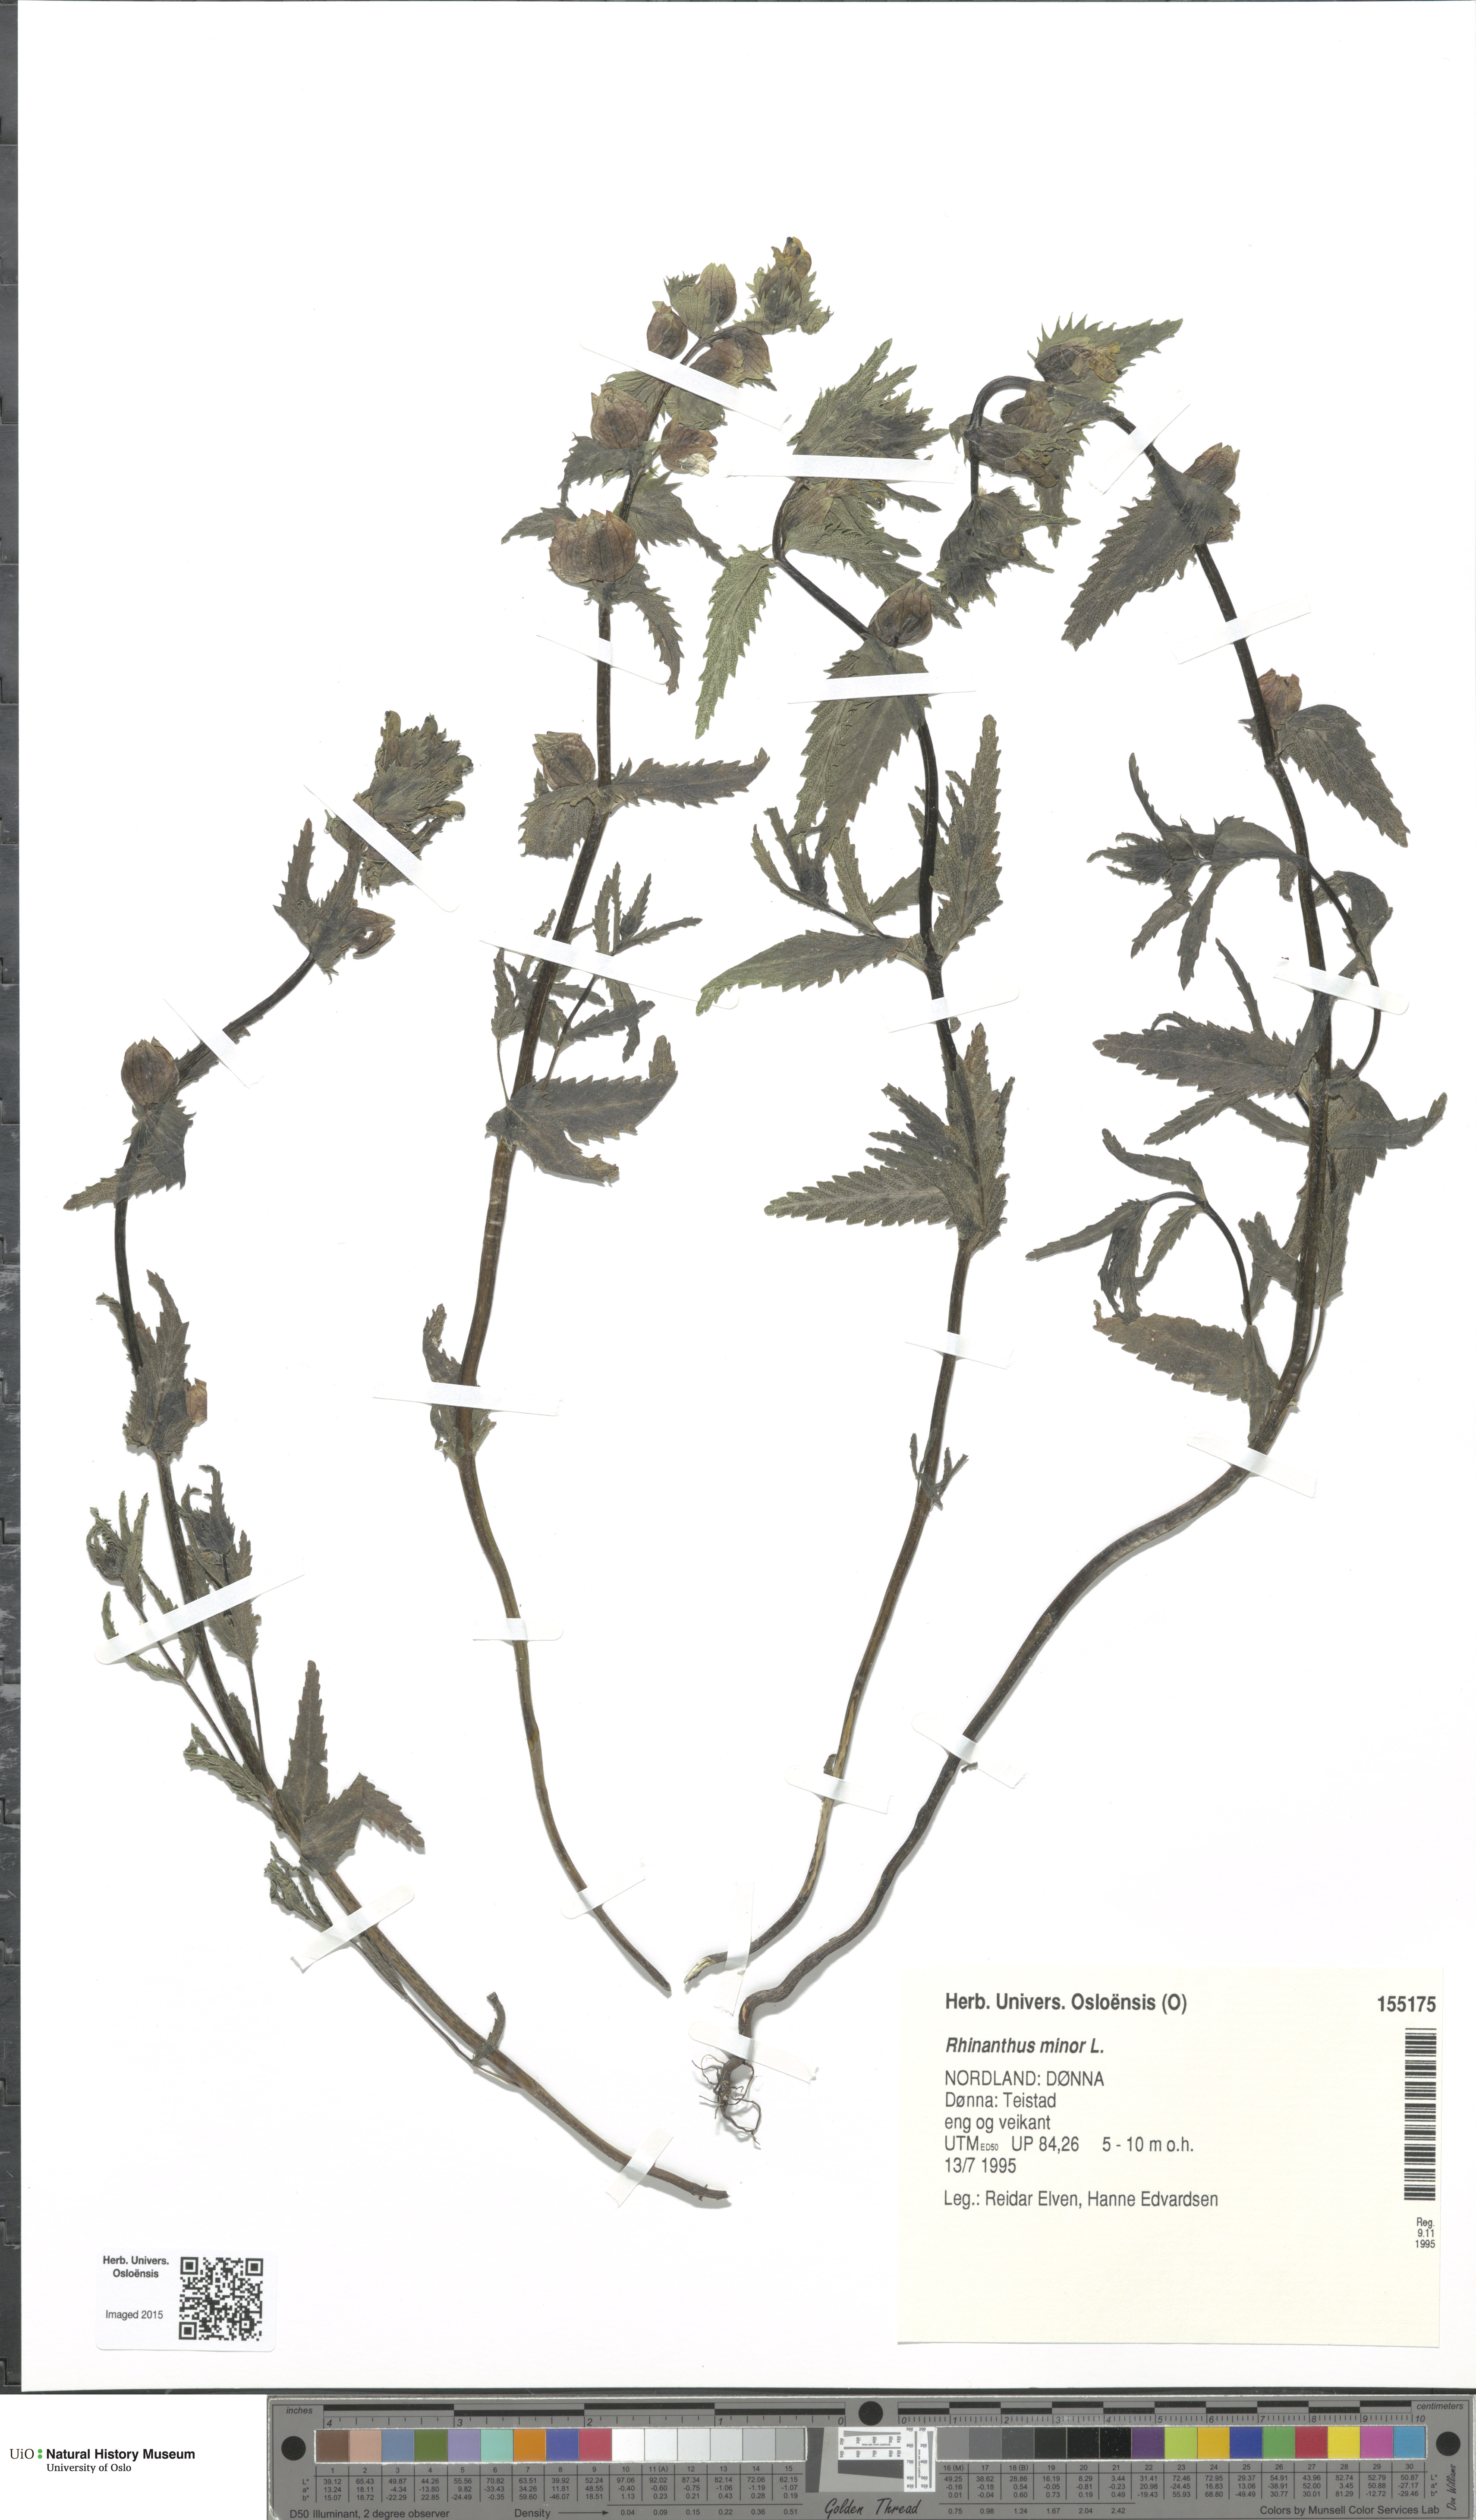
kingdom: Plantae
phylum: Tracheophyta
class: Magnoliopsida
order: Lamiales
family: Orobanchaceae
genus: Rhinanthus
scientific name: Rhinanthus minor
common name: Yellow-rattle
